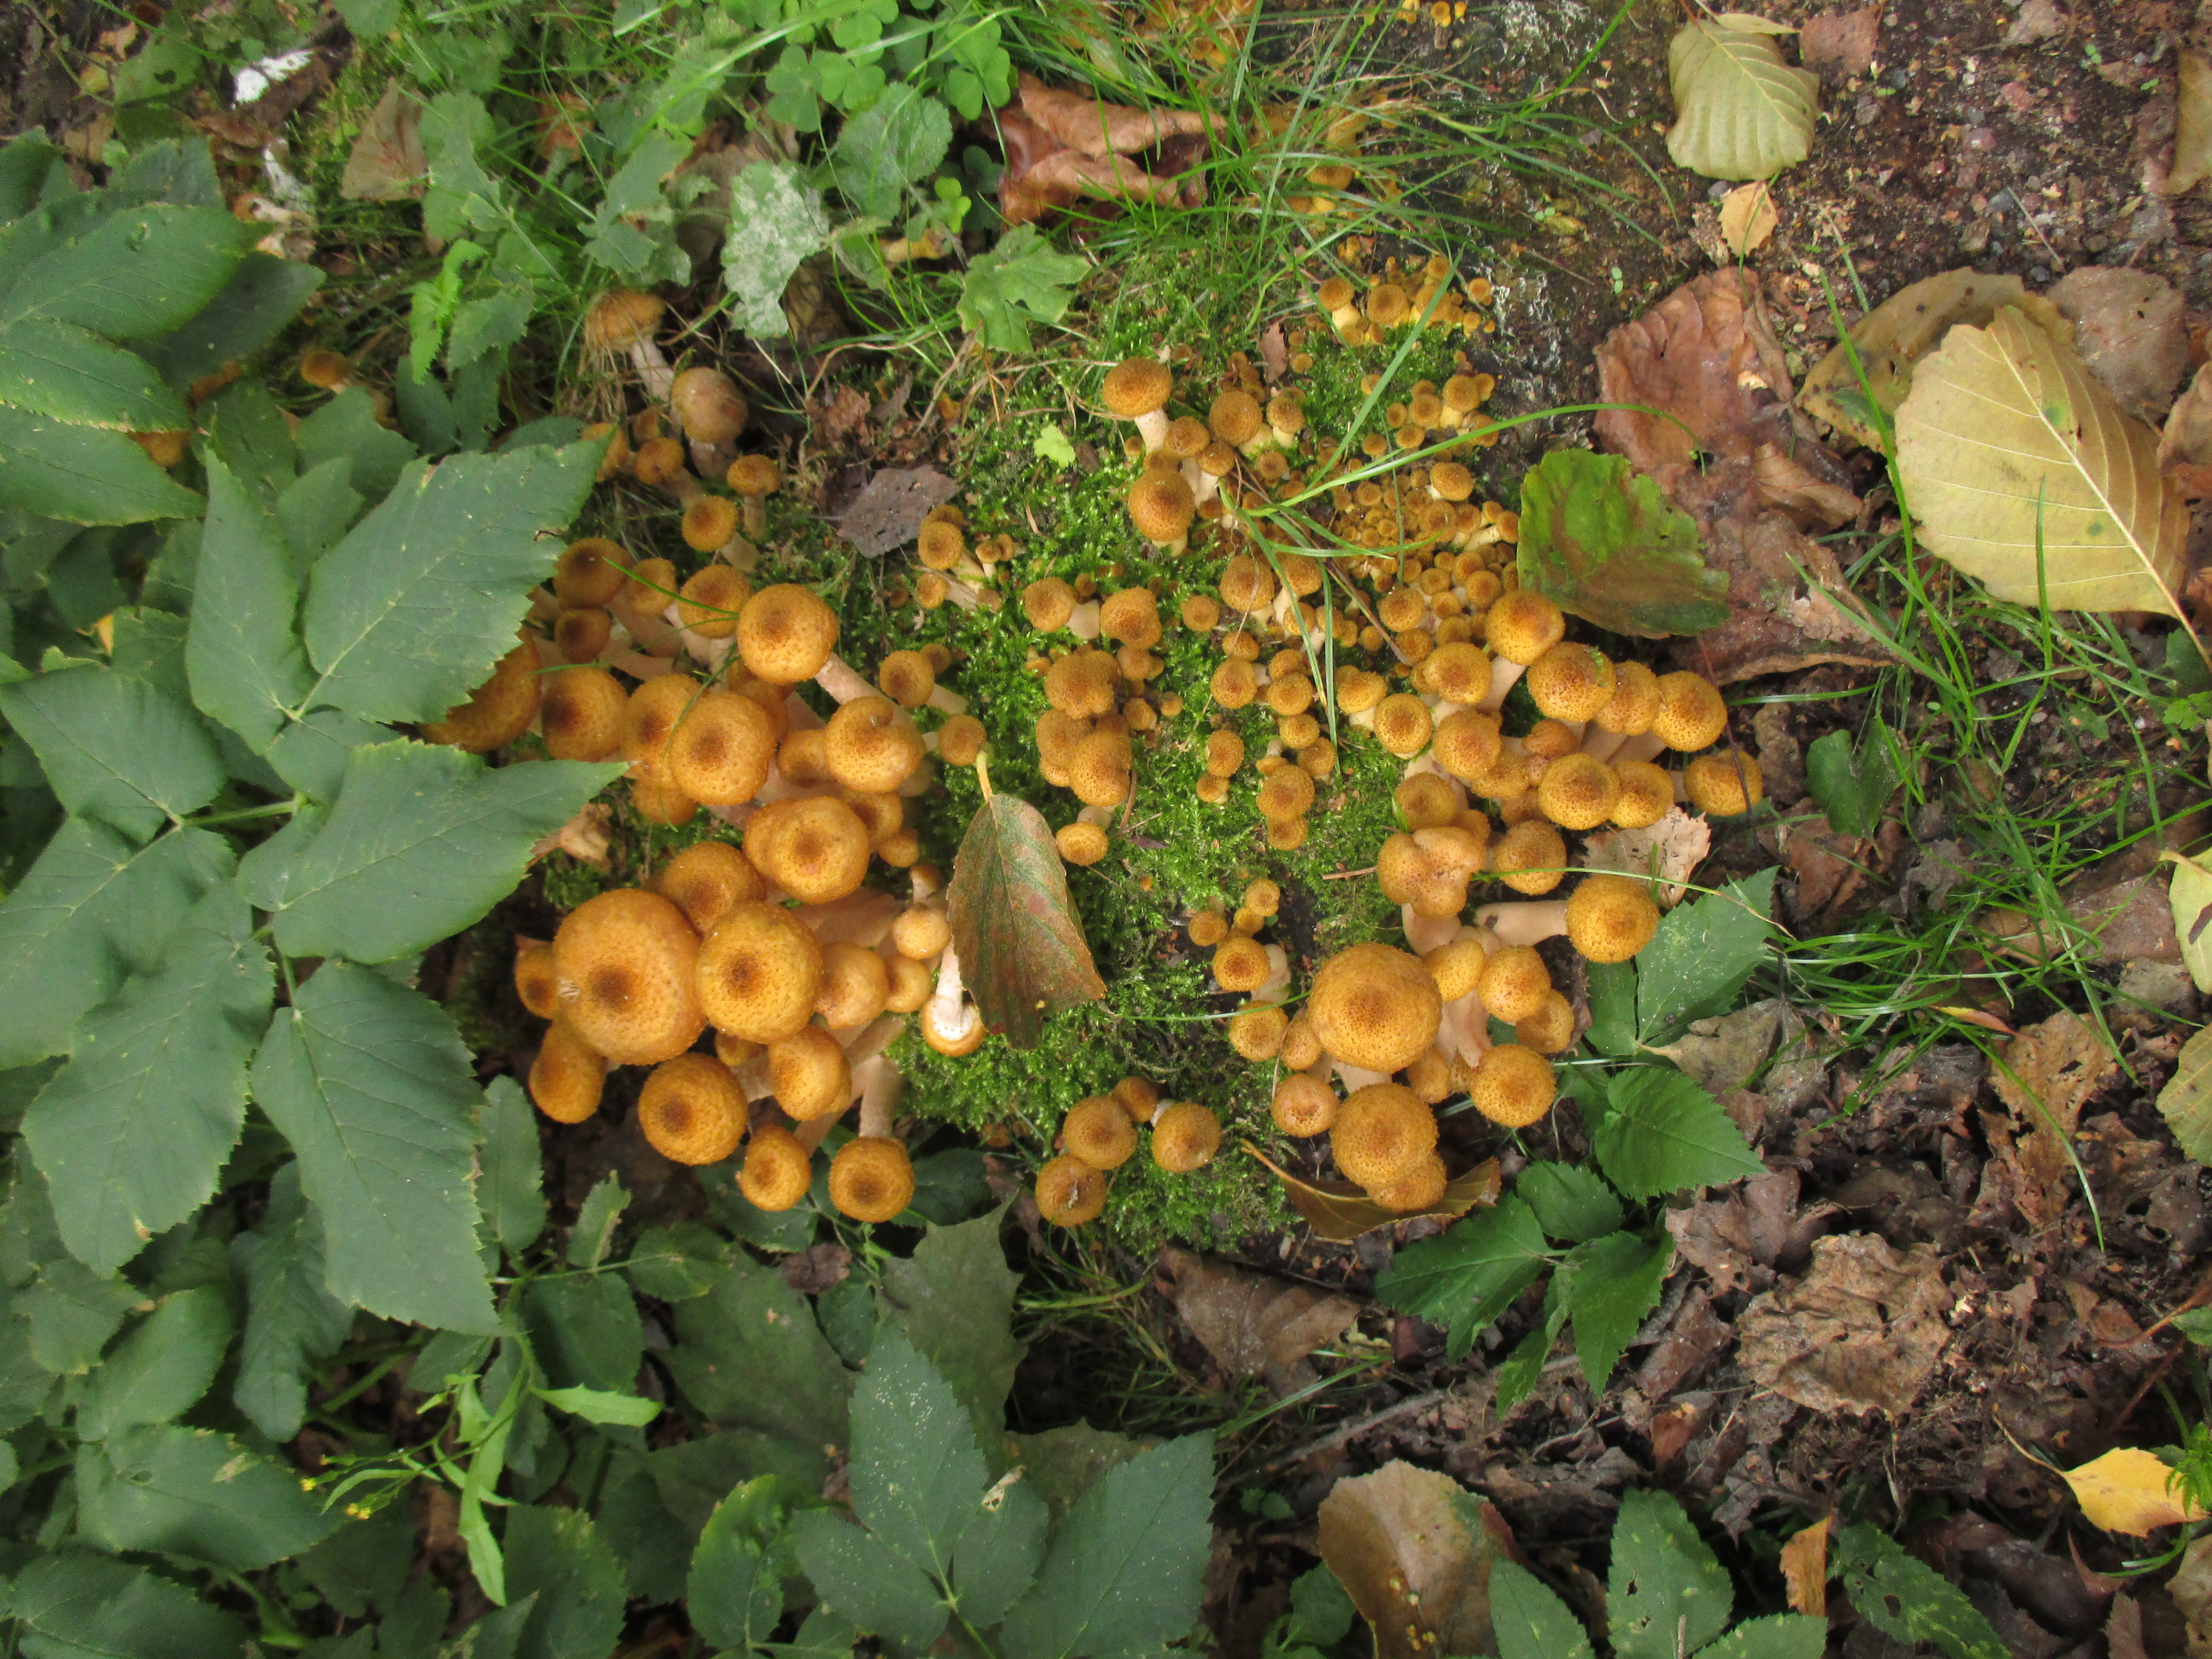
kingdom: Fungi
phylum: Basidiomycota
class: Agaricomycetes
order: Agaricales
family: Physalacriaceae
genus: Armillaria
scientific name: Armillaria borealis
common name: Northern honey fungus
